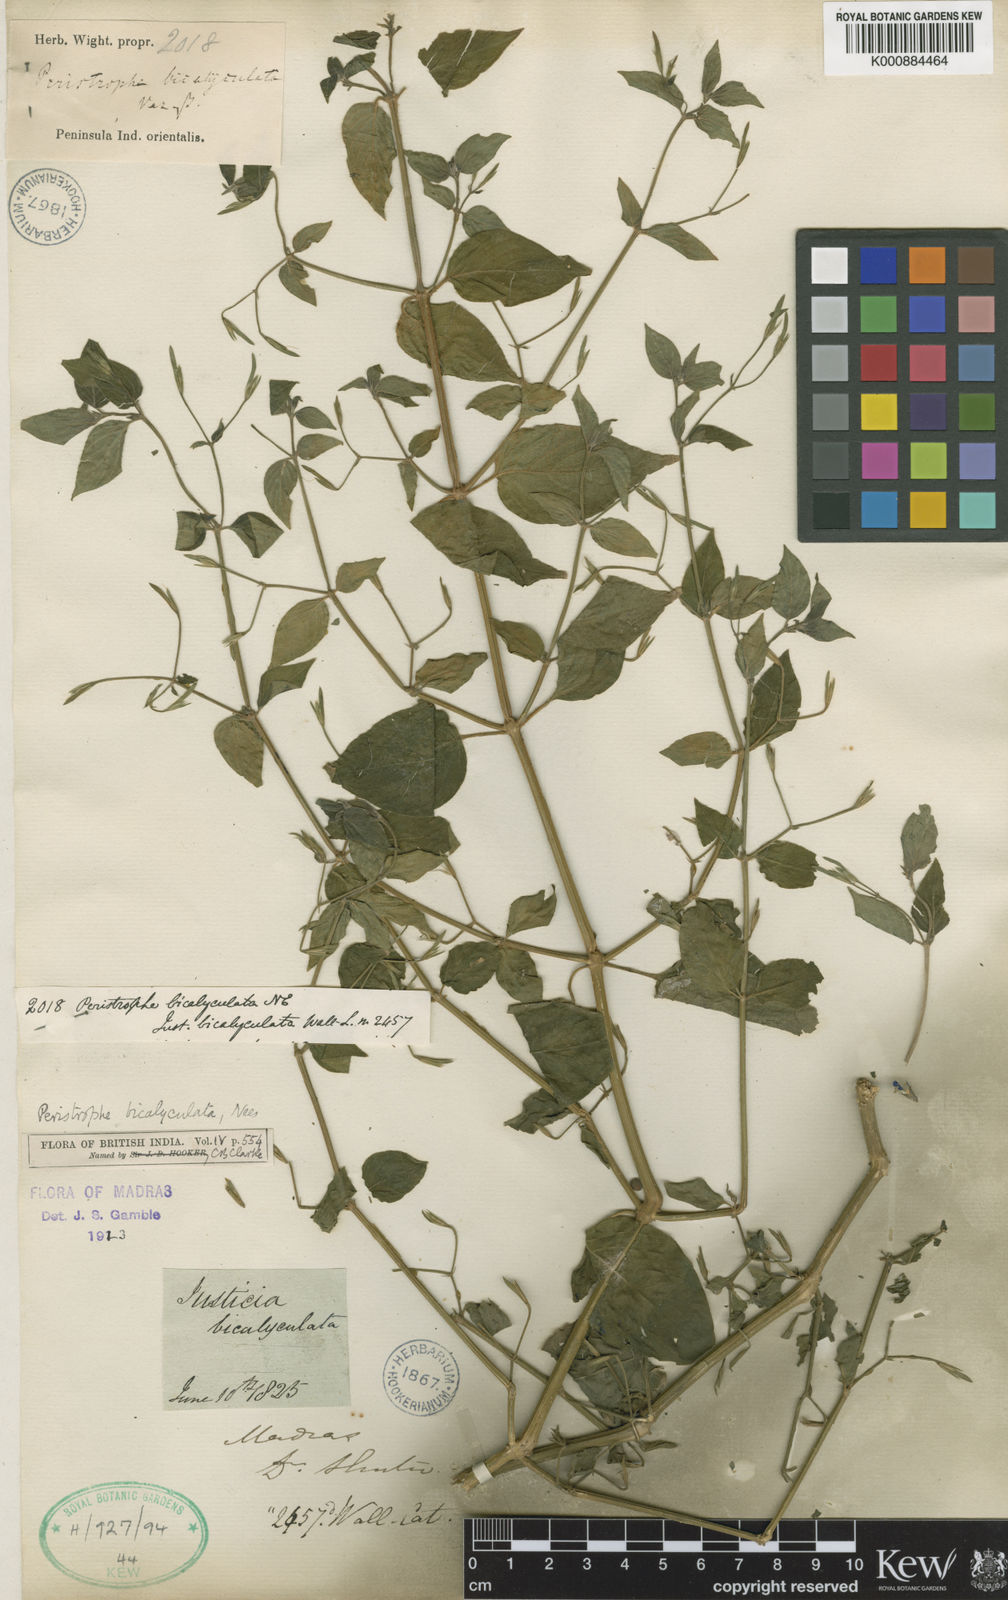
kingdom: Plantae
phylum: Tracheophyta
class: Magnoliopsida
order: Lamiales
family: Acanthaceae
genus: Dicliptera
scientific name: Dicliptera paniculata
